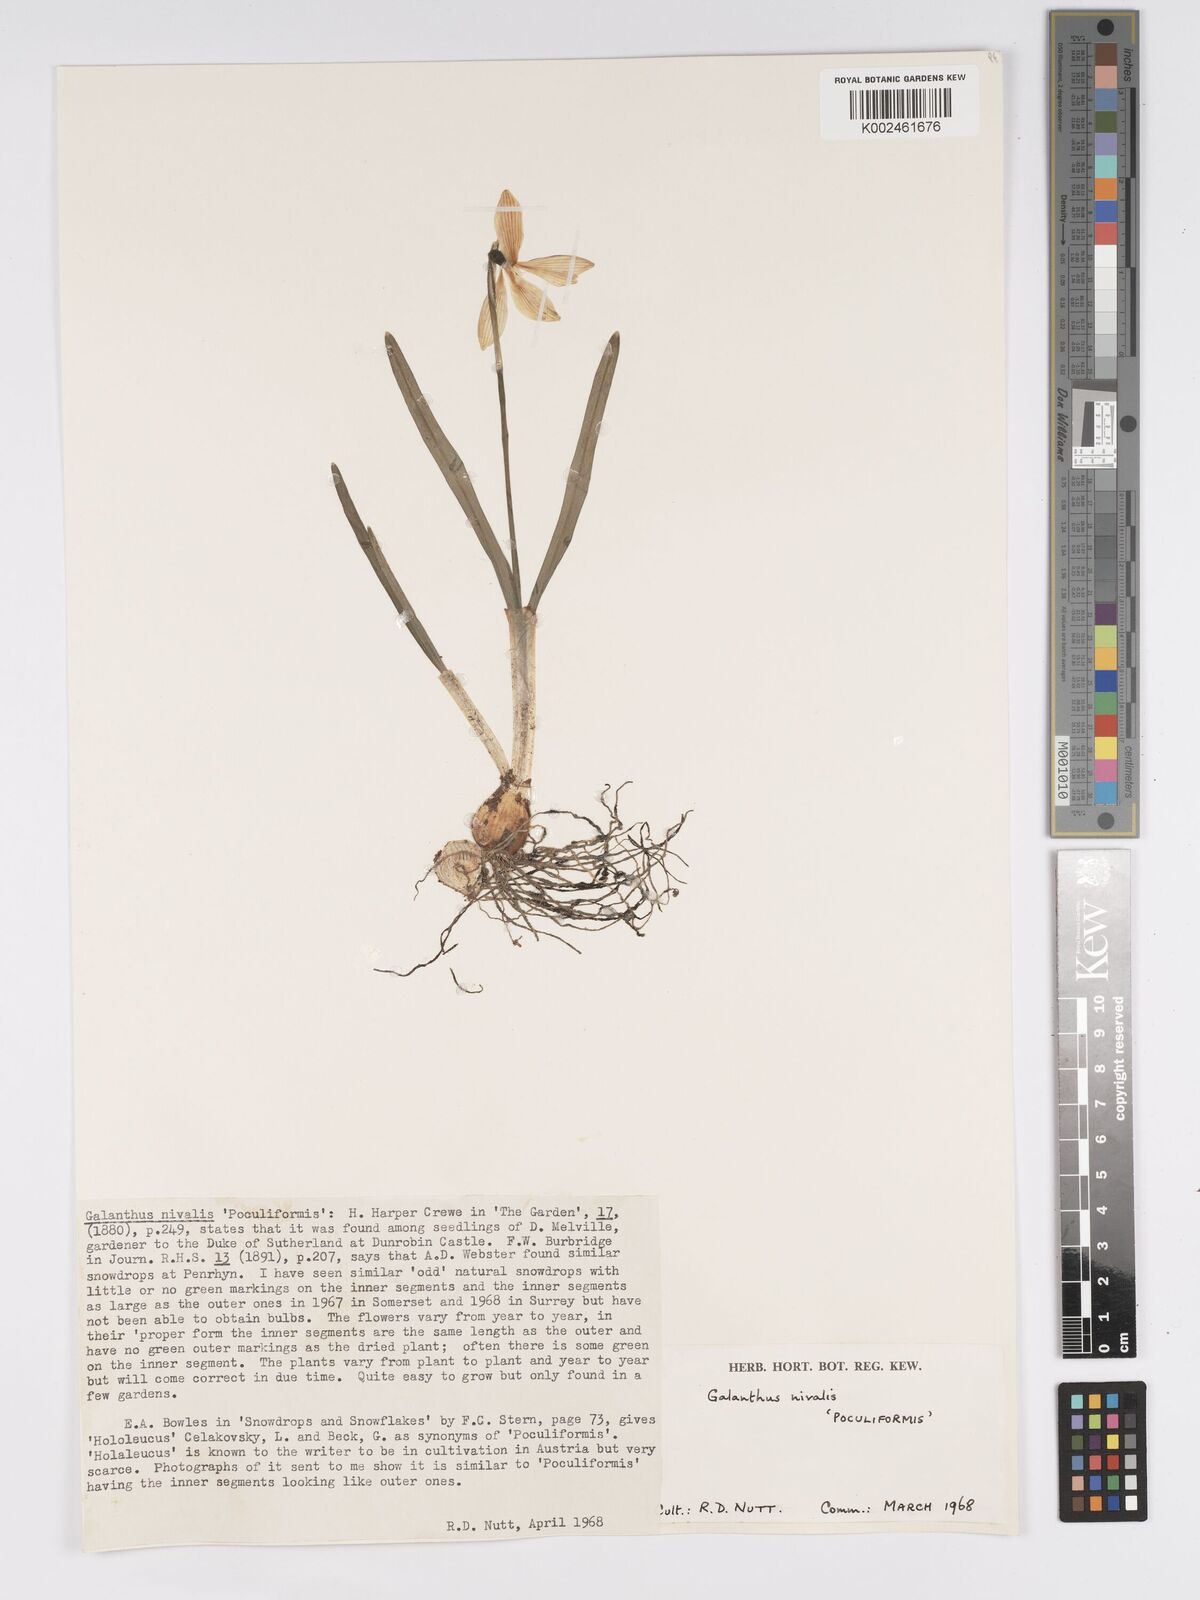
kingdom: Plantae
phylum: Tracheophyta
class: Liliopsida
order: Asparagales
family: Amaryllidaceae
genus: Galanthus
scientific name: Galanthus
